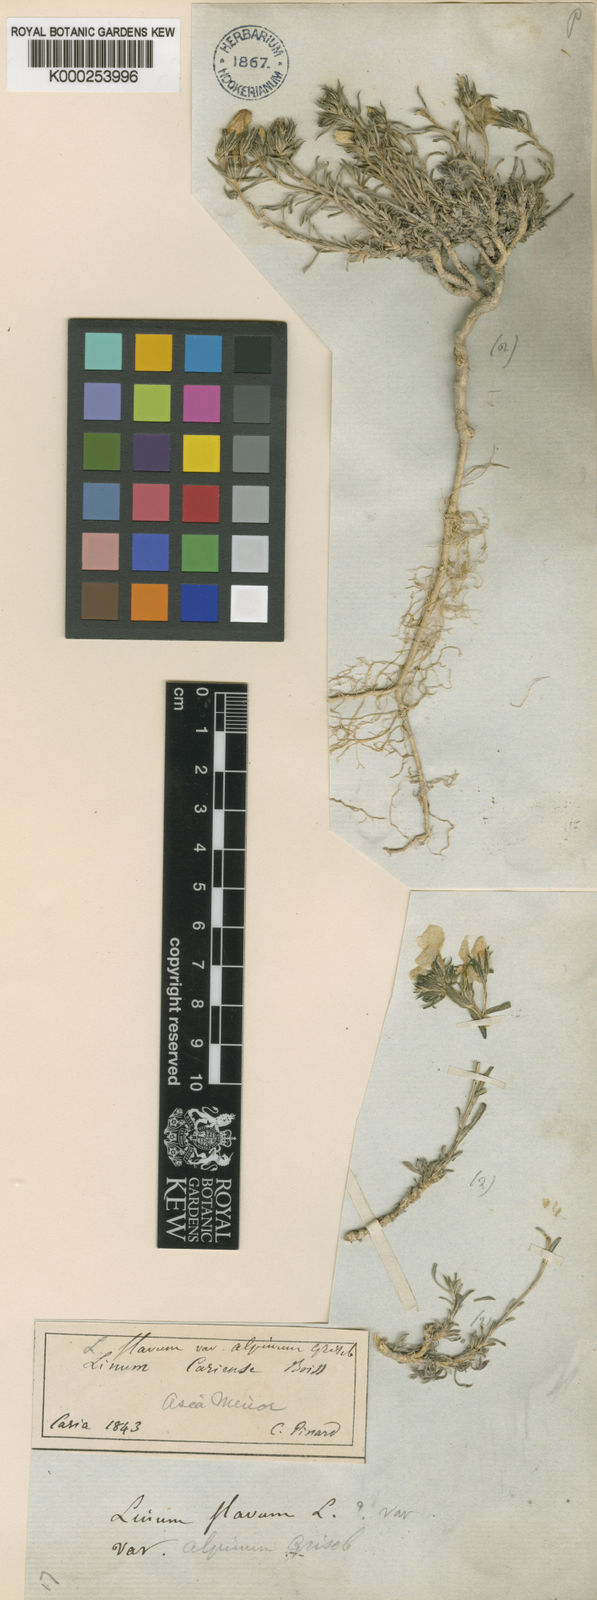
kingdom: Plantae
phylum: Tracheophyta
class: Magnoliopsida
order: Malpighiales
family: Linaceae
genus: Linum
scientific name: Linum cariense
